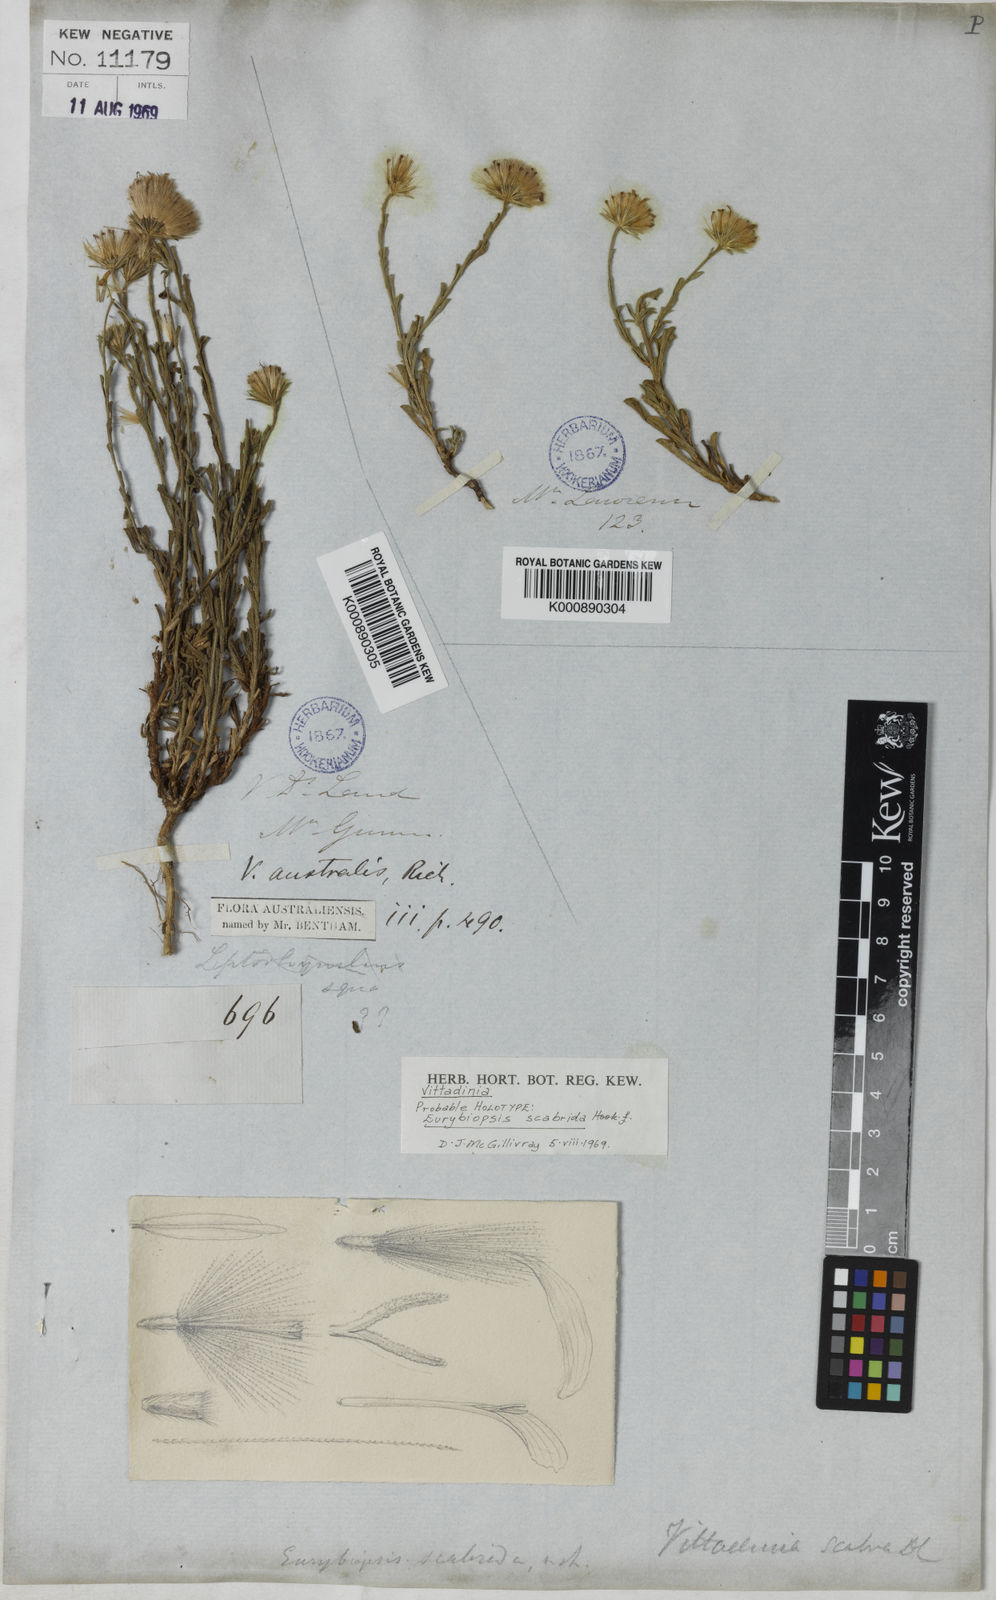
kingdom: Plantae
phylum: Tracheophyta
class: Magnoliopsida
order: Asterales
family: Asteraceae
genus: Vittadinia
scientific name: Vittadinia cuneata
